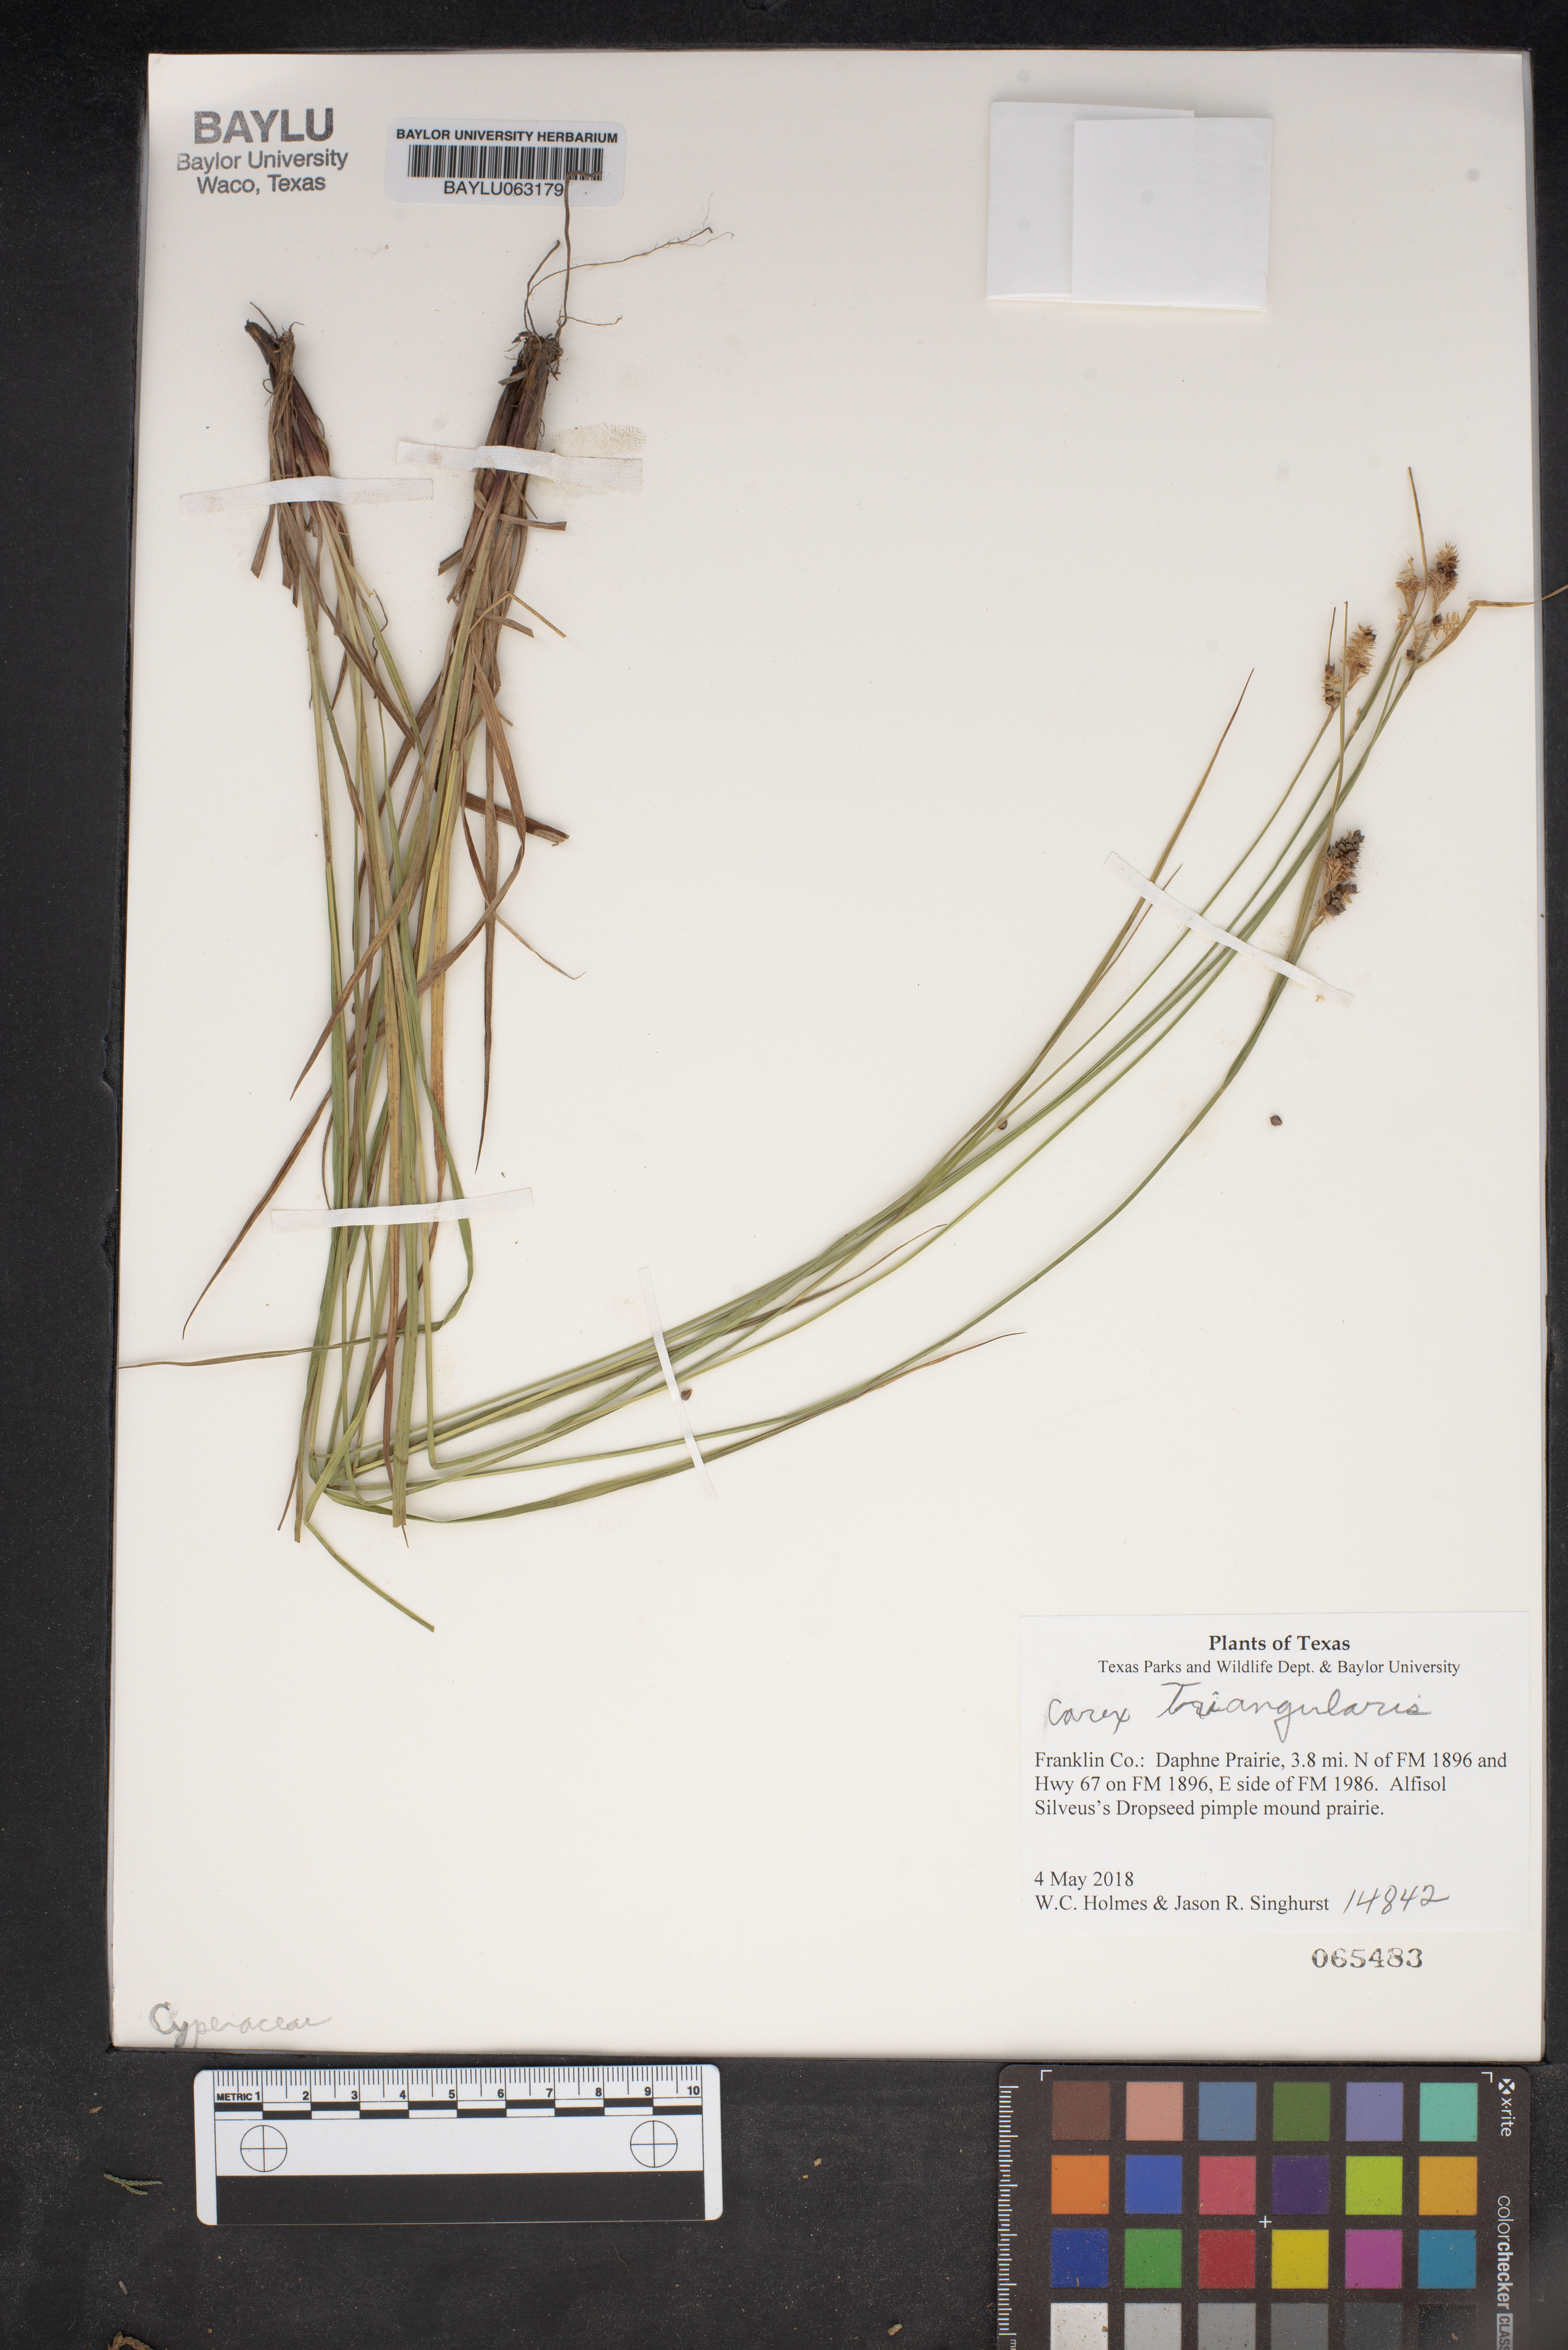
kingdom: Plantae
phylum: Tracheophyta
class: Liliopsida
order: Poales
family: Cyperaceae
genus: Carex
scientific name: Carex triangularis
